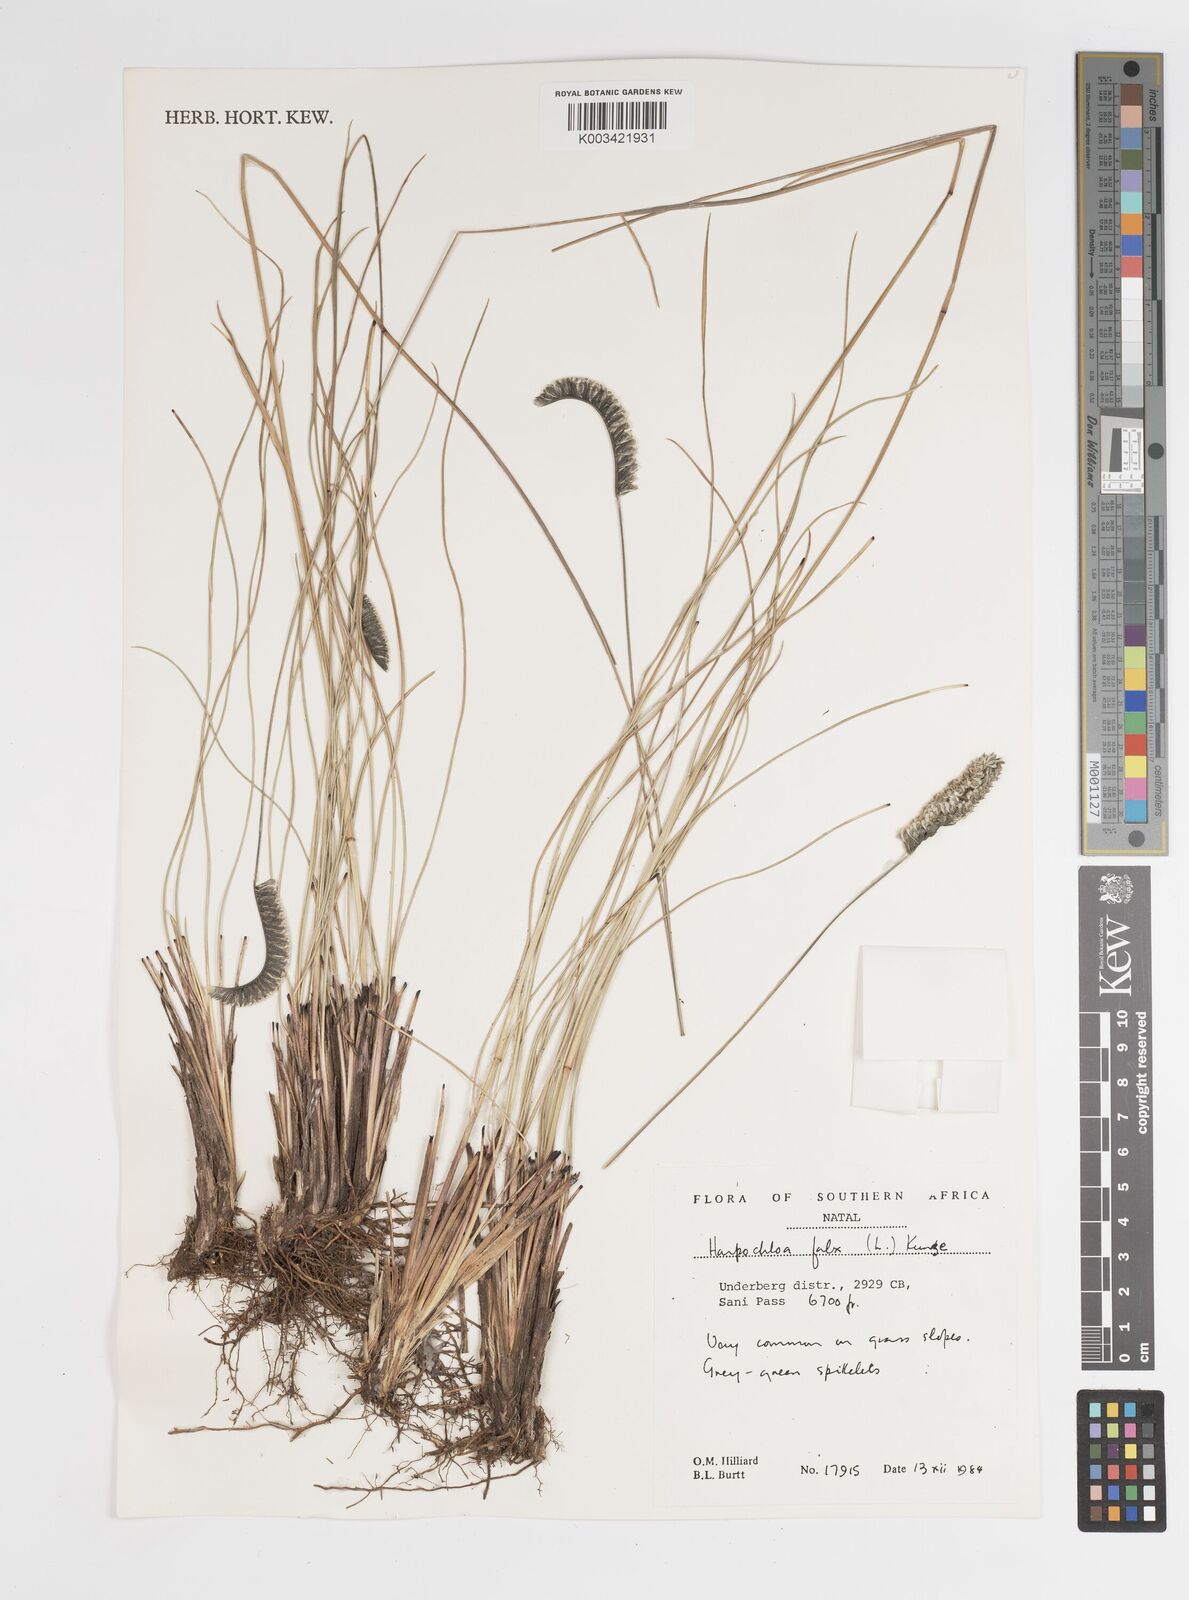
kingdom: Plantae
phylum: Tracheophyta
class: Liliopsida
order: Poales
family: Poaceae
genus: Harpochloa
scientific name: Harpochloa falx
